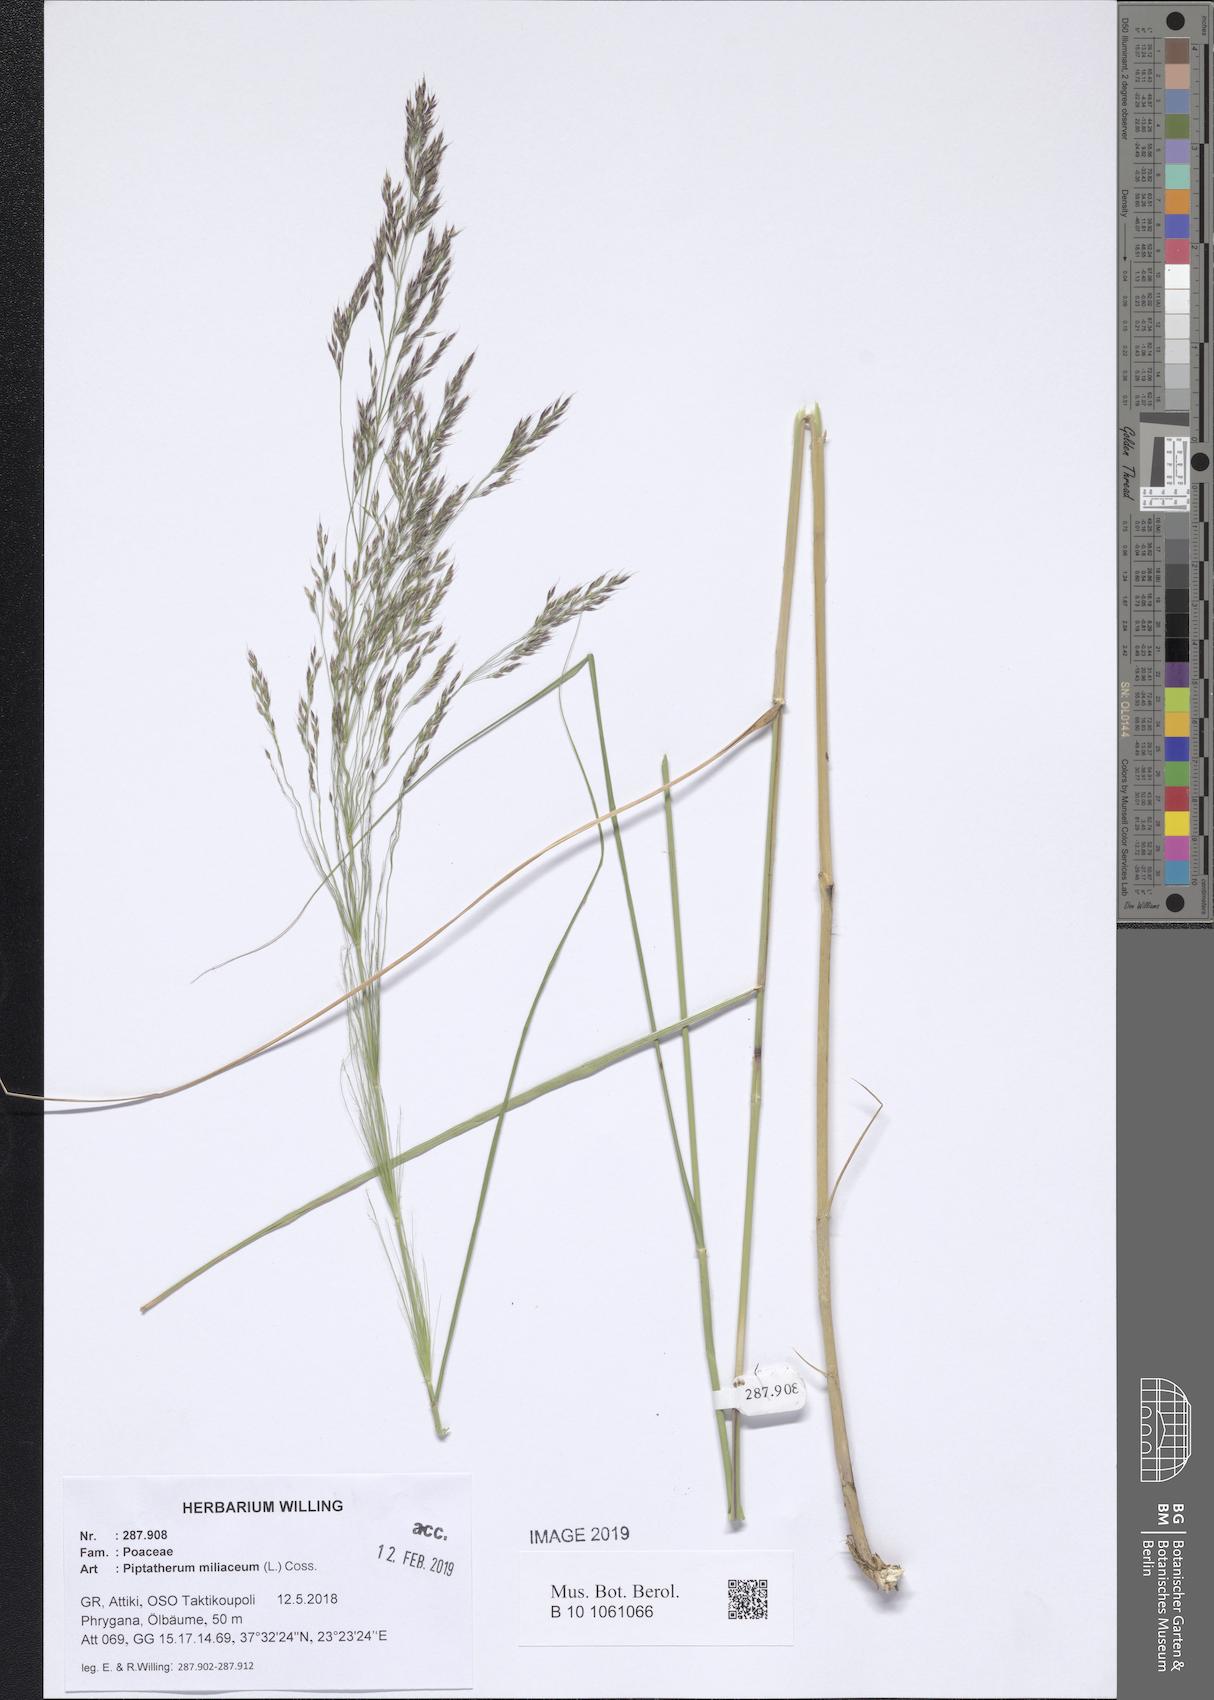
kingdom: Plantae
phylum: Tracheophyta
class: Liliopsida
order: Poales
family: Poaceae
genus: Oloptum
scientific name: Oloptum miliaceum
